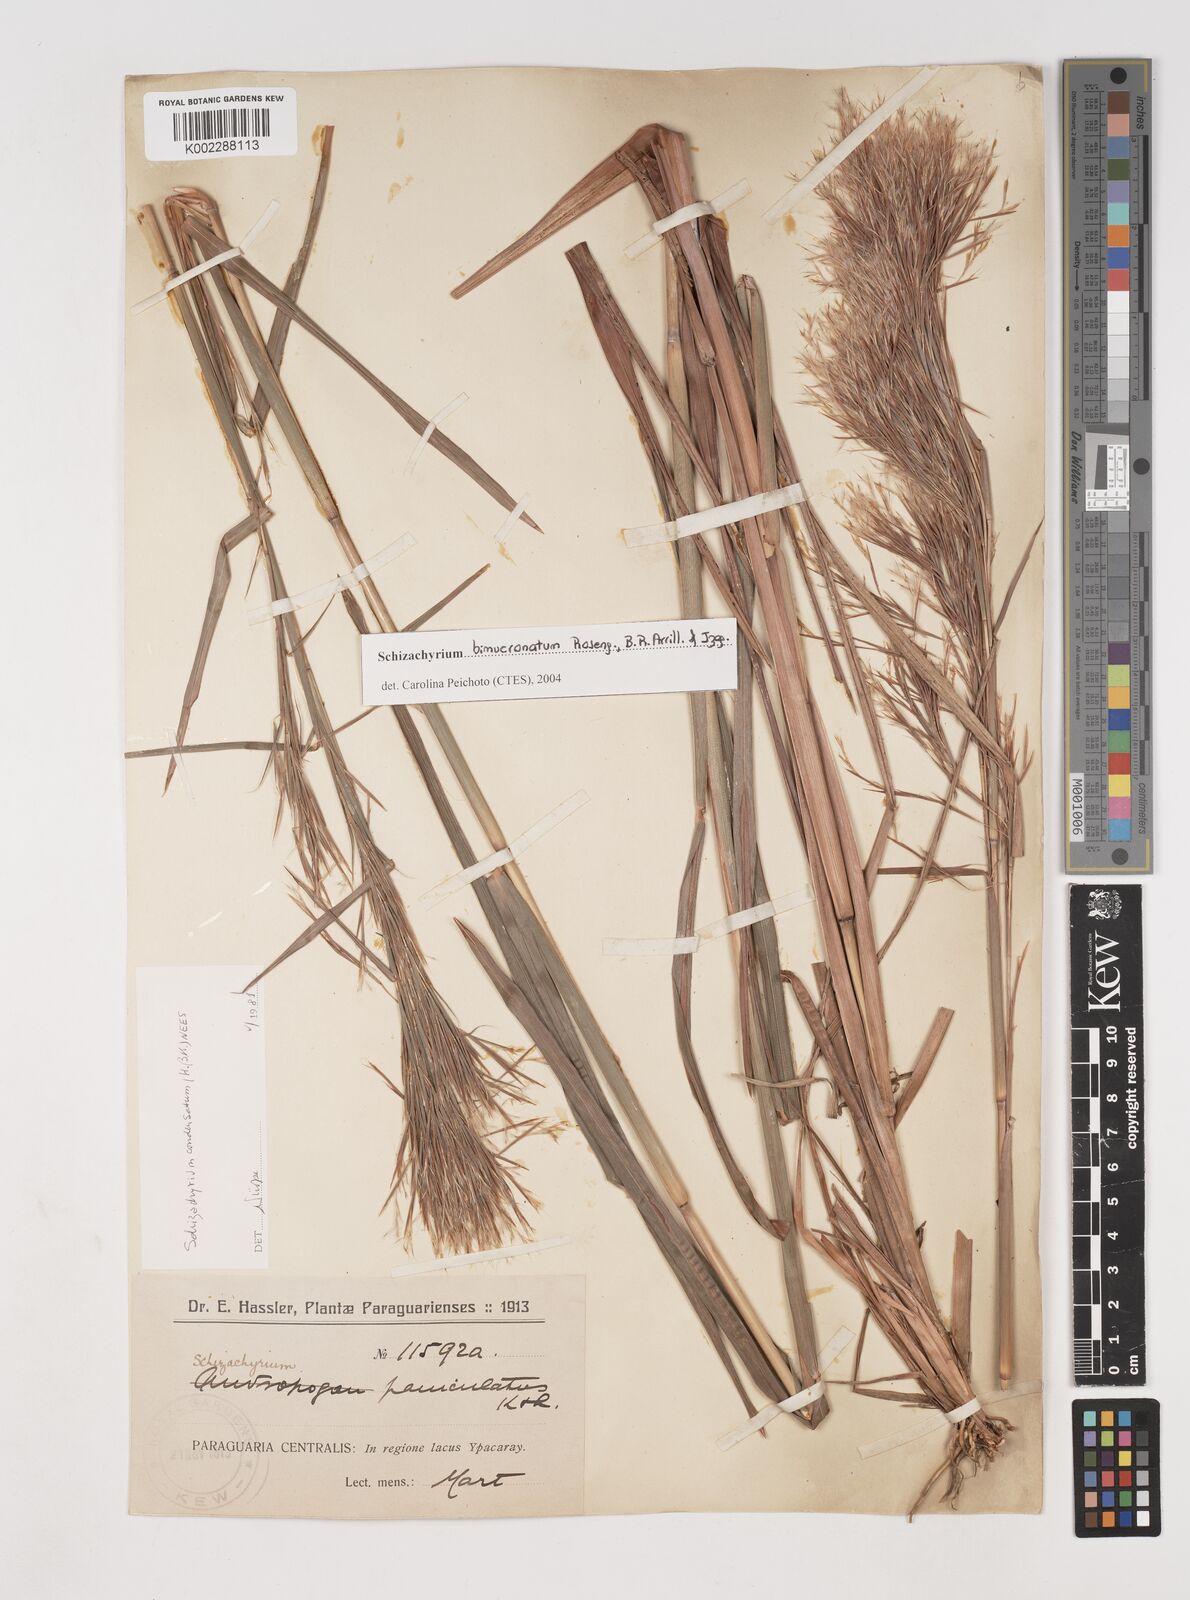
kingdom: Plantae
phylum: Tracheophyta
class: Liliopsida
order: Poales
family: Poaceae
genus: Schizachyrium
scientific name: Schizachyrium condensatum
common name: Bush beardgrass
